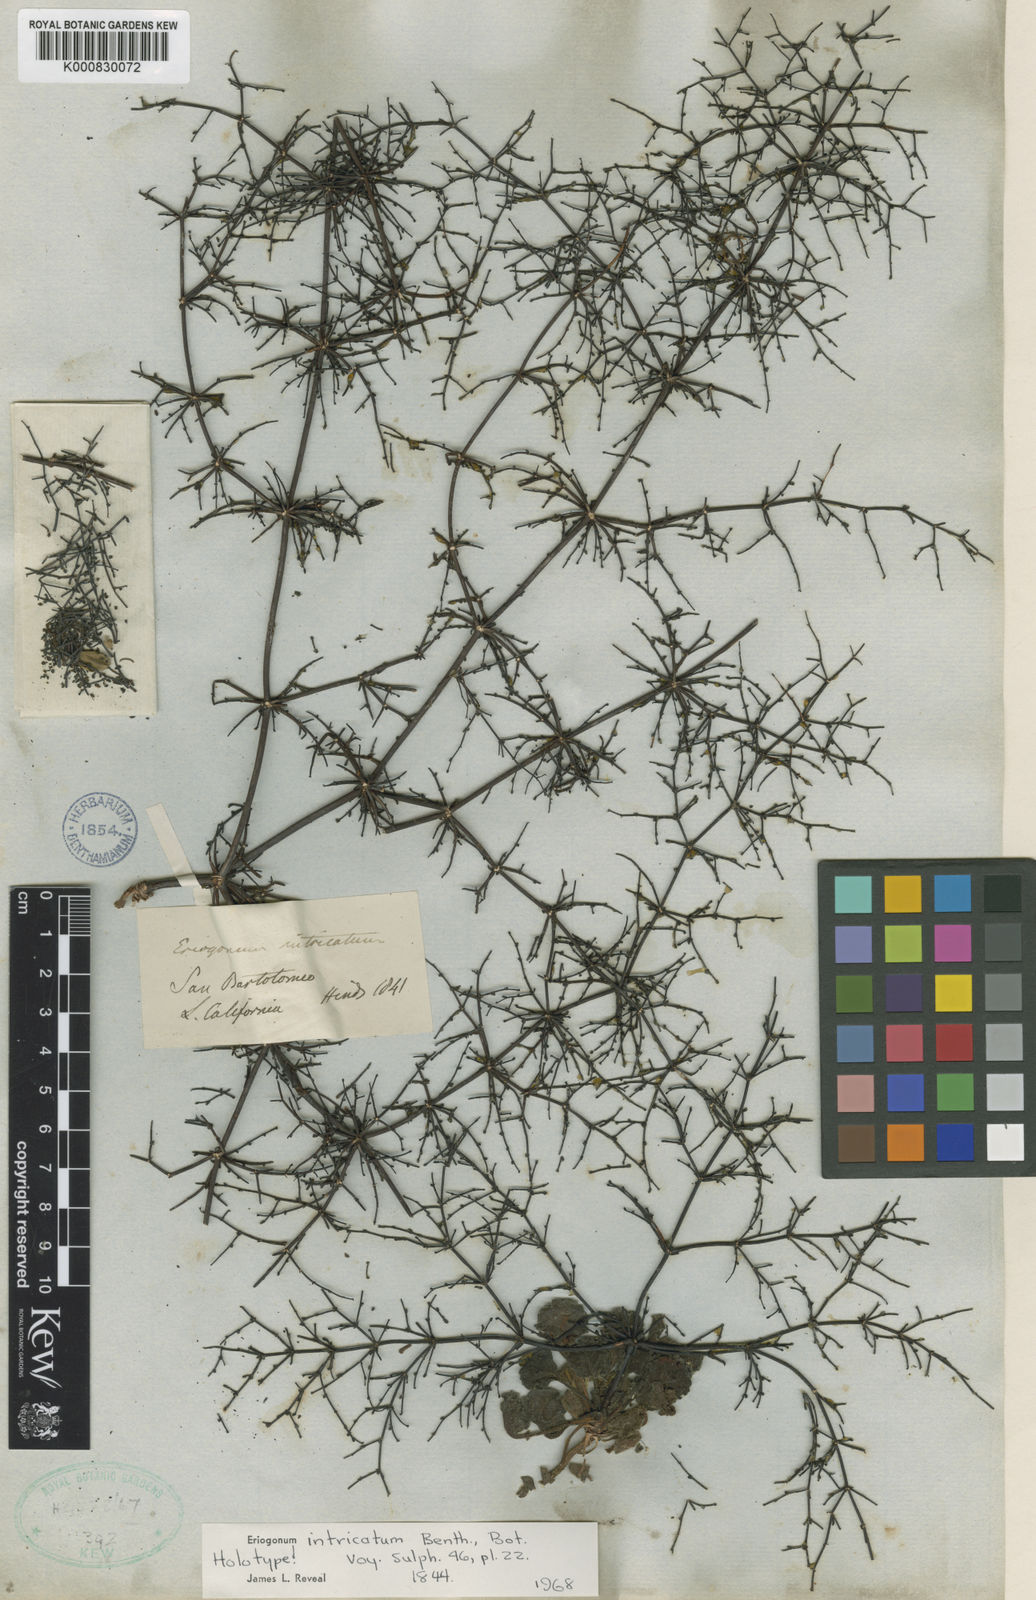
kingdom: Plantae
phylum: Tracheophyta
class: Magnoliopsida
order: Caryophyllales
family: Polygonaceae
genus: Eriogonum
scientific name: Eriogonum intricatum
